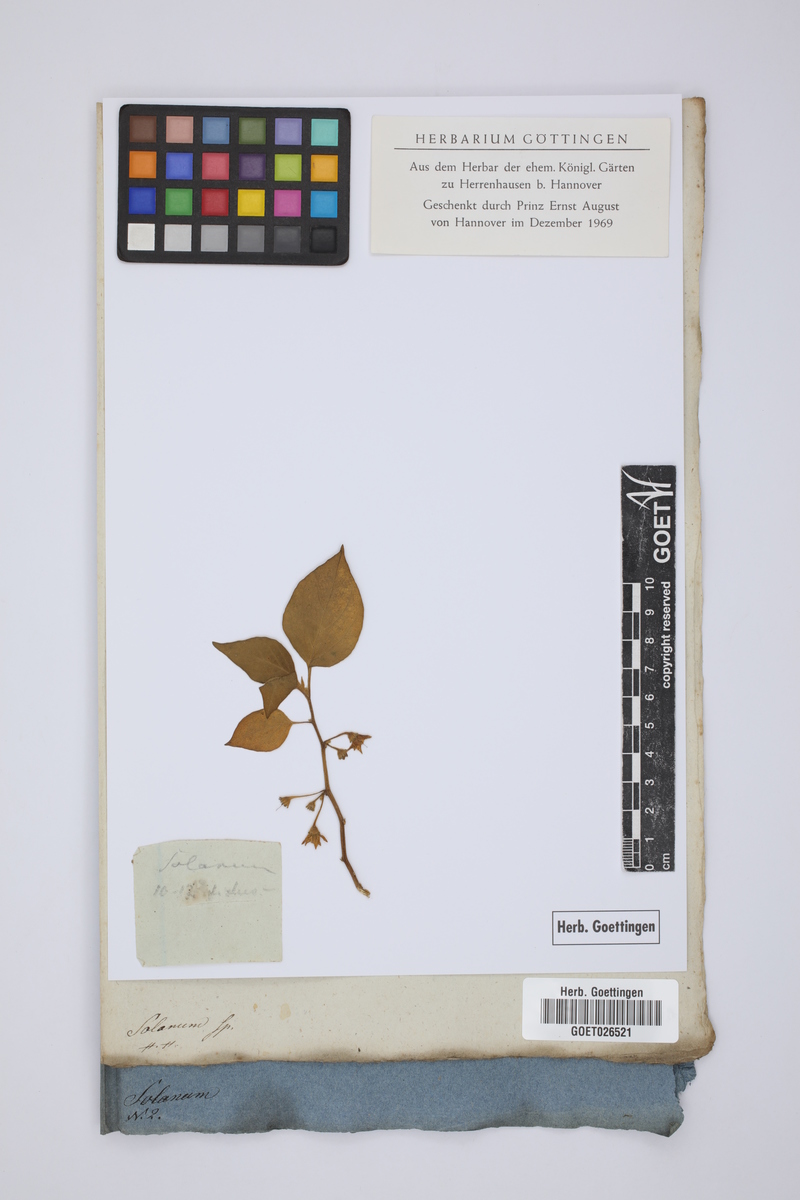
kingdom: Plantae
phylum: Tracheophyta
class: Magnoliopsida
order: Solanales
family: Solanaceae
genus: Solanum
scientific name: Solanum
